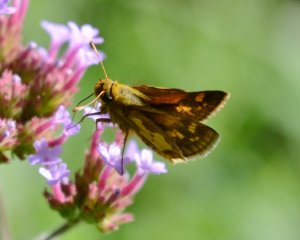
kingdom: Animalia
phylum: Arthropoda
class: Insecta
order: Lepidoptera
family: Hesperiidae
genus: Polites
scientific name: Polites coras
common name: Peck's Skipper
